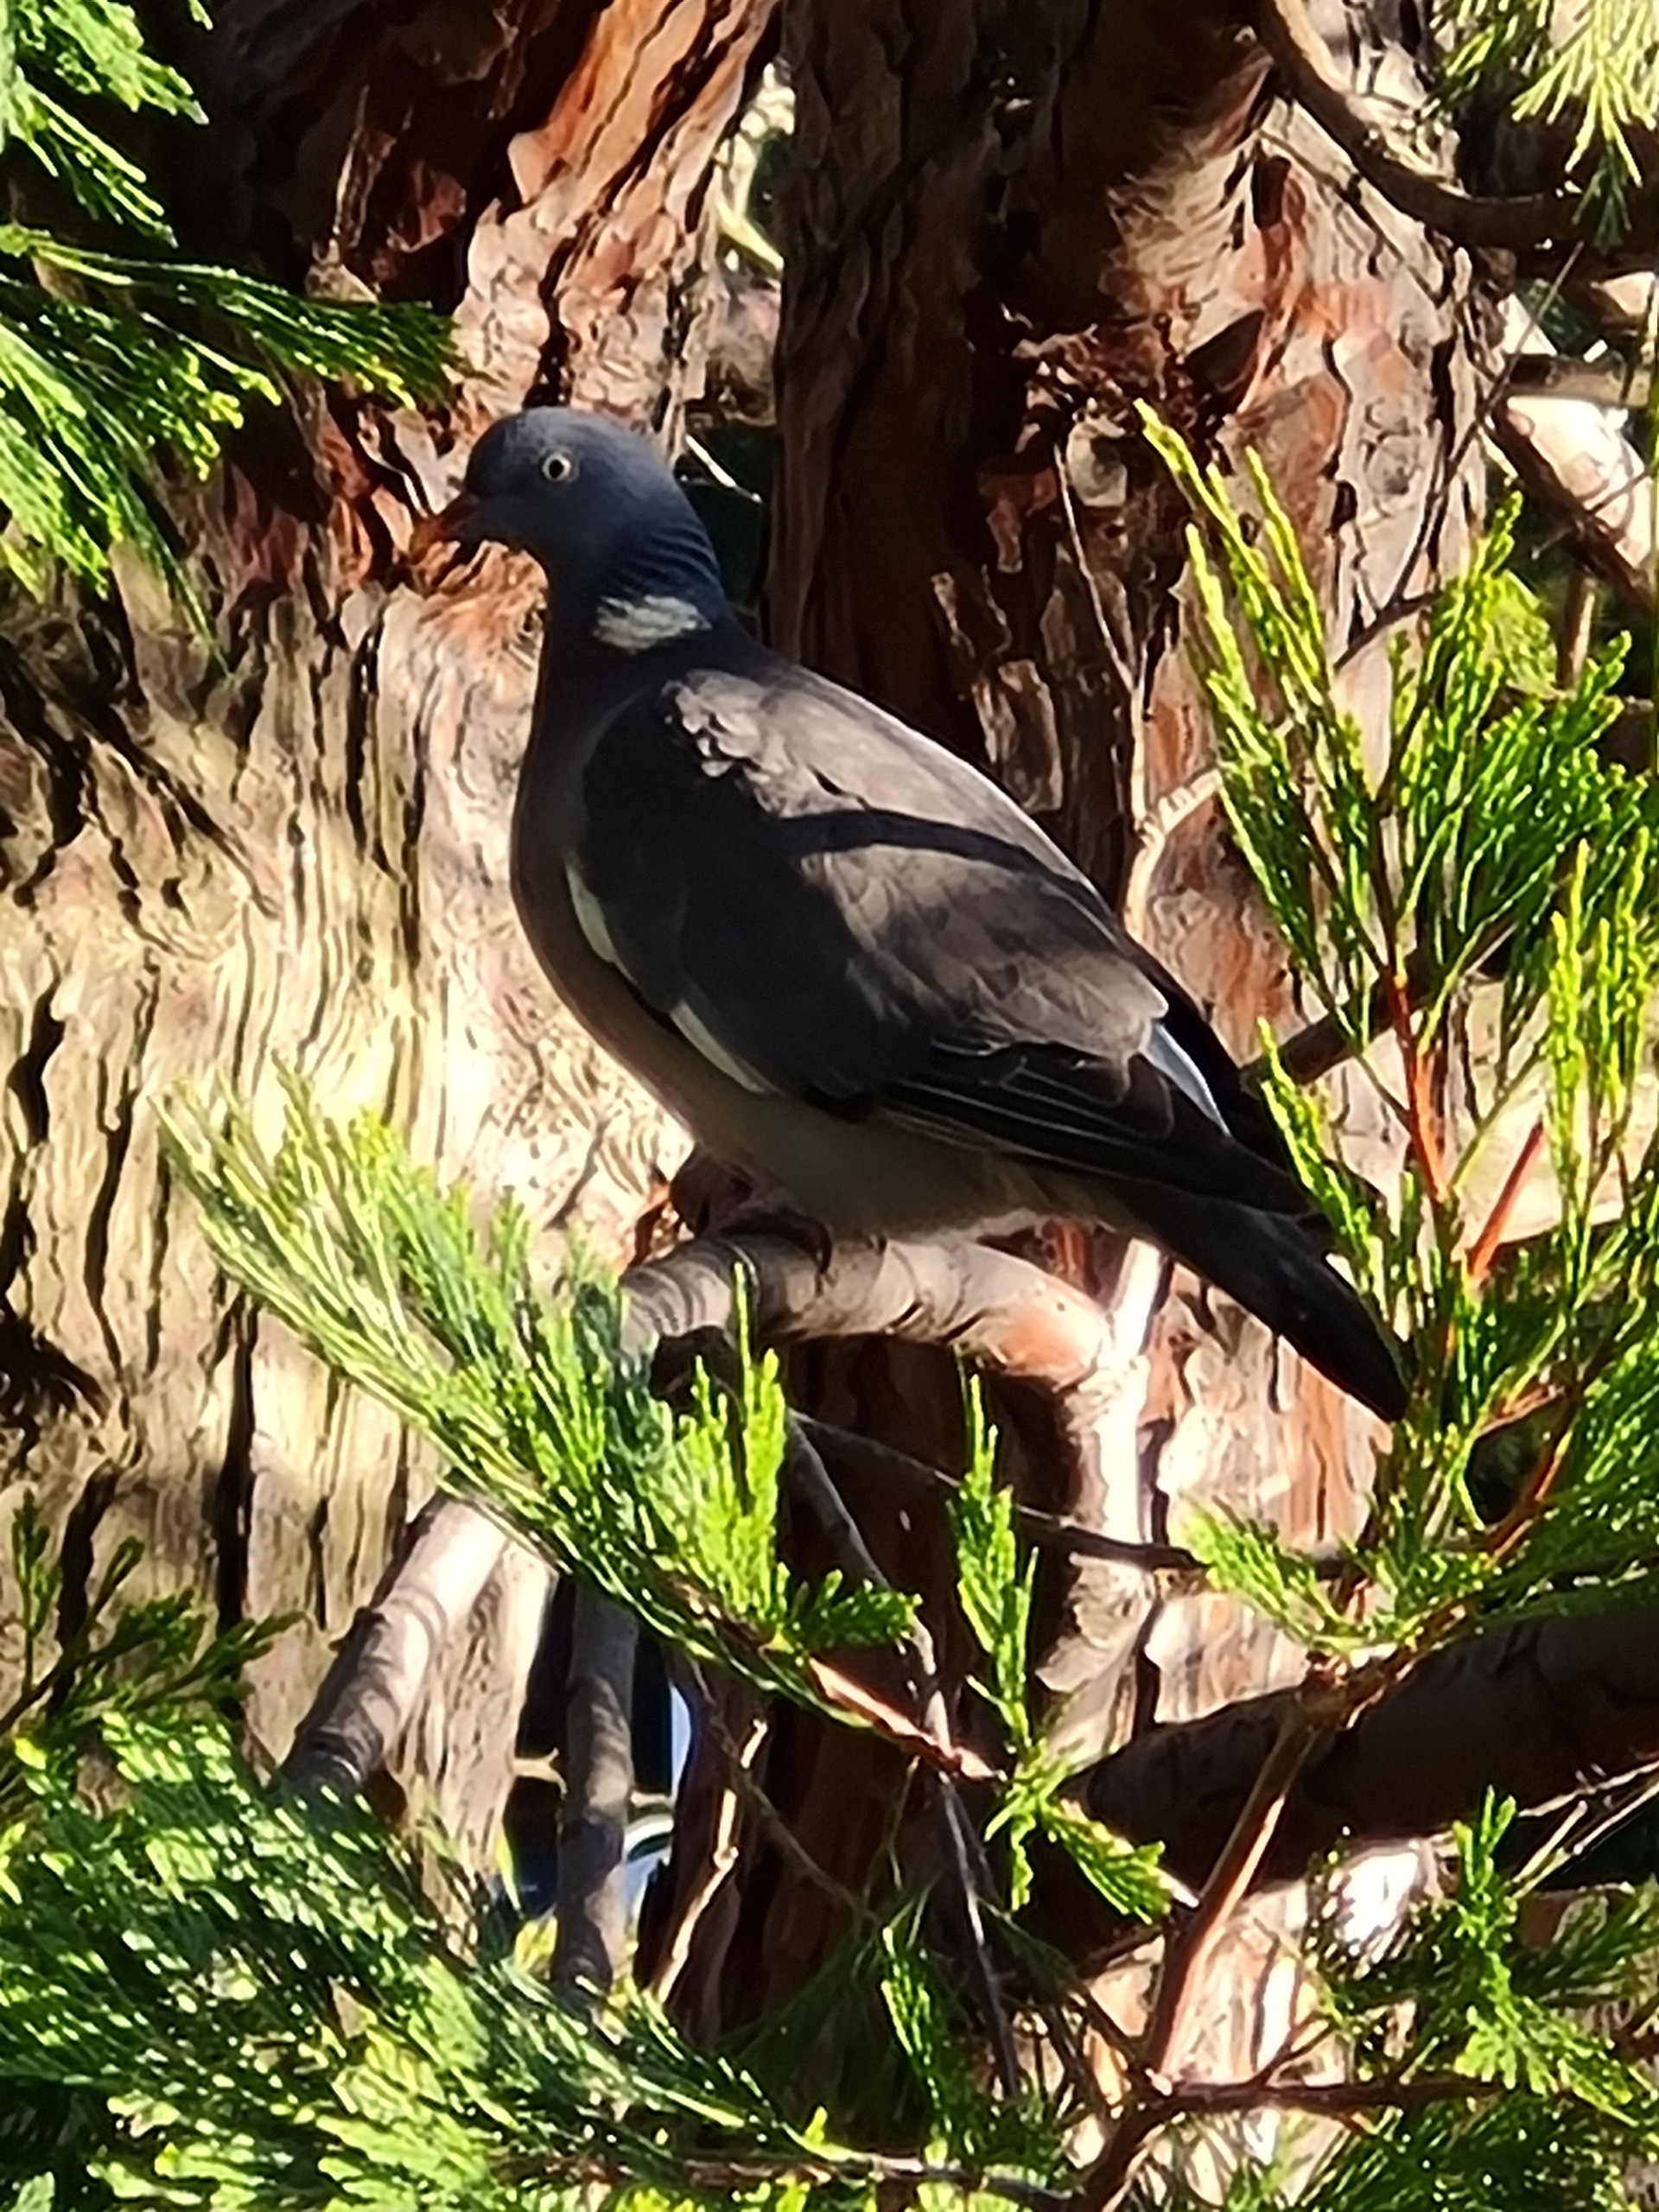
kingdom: Animalia
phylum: Chordata
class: Aves
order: Columbiformes
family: Columbidae
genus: Columba
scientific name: Columba palumbus
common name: Ringdue
